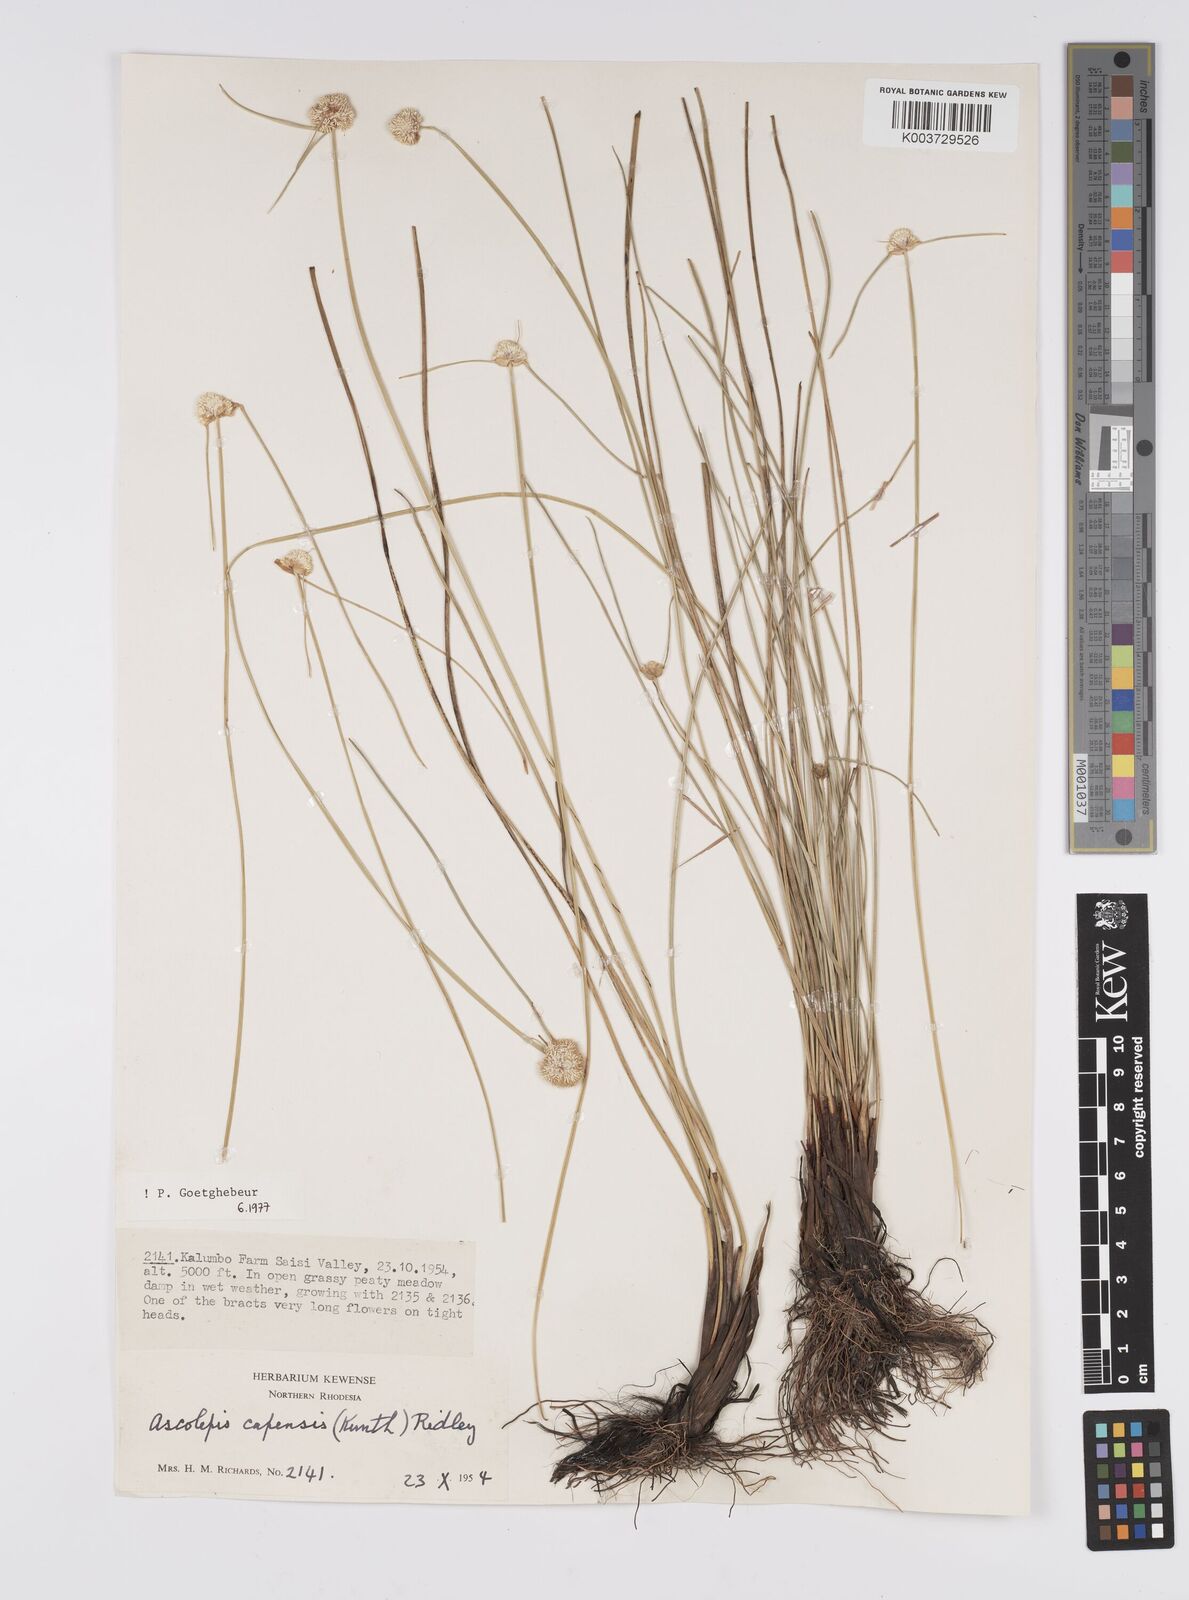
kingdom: Plantae
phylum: Tracheophyta
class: Liliopsida
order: Poales
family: Cyperaceae
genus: Cyperus
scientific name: Cyperus
